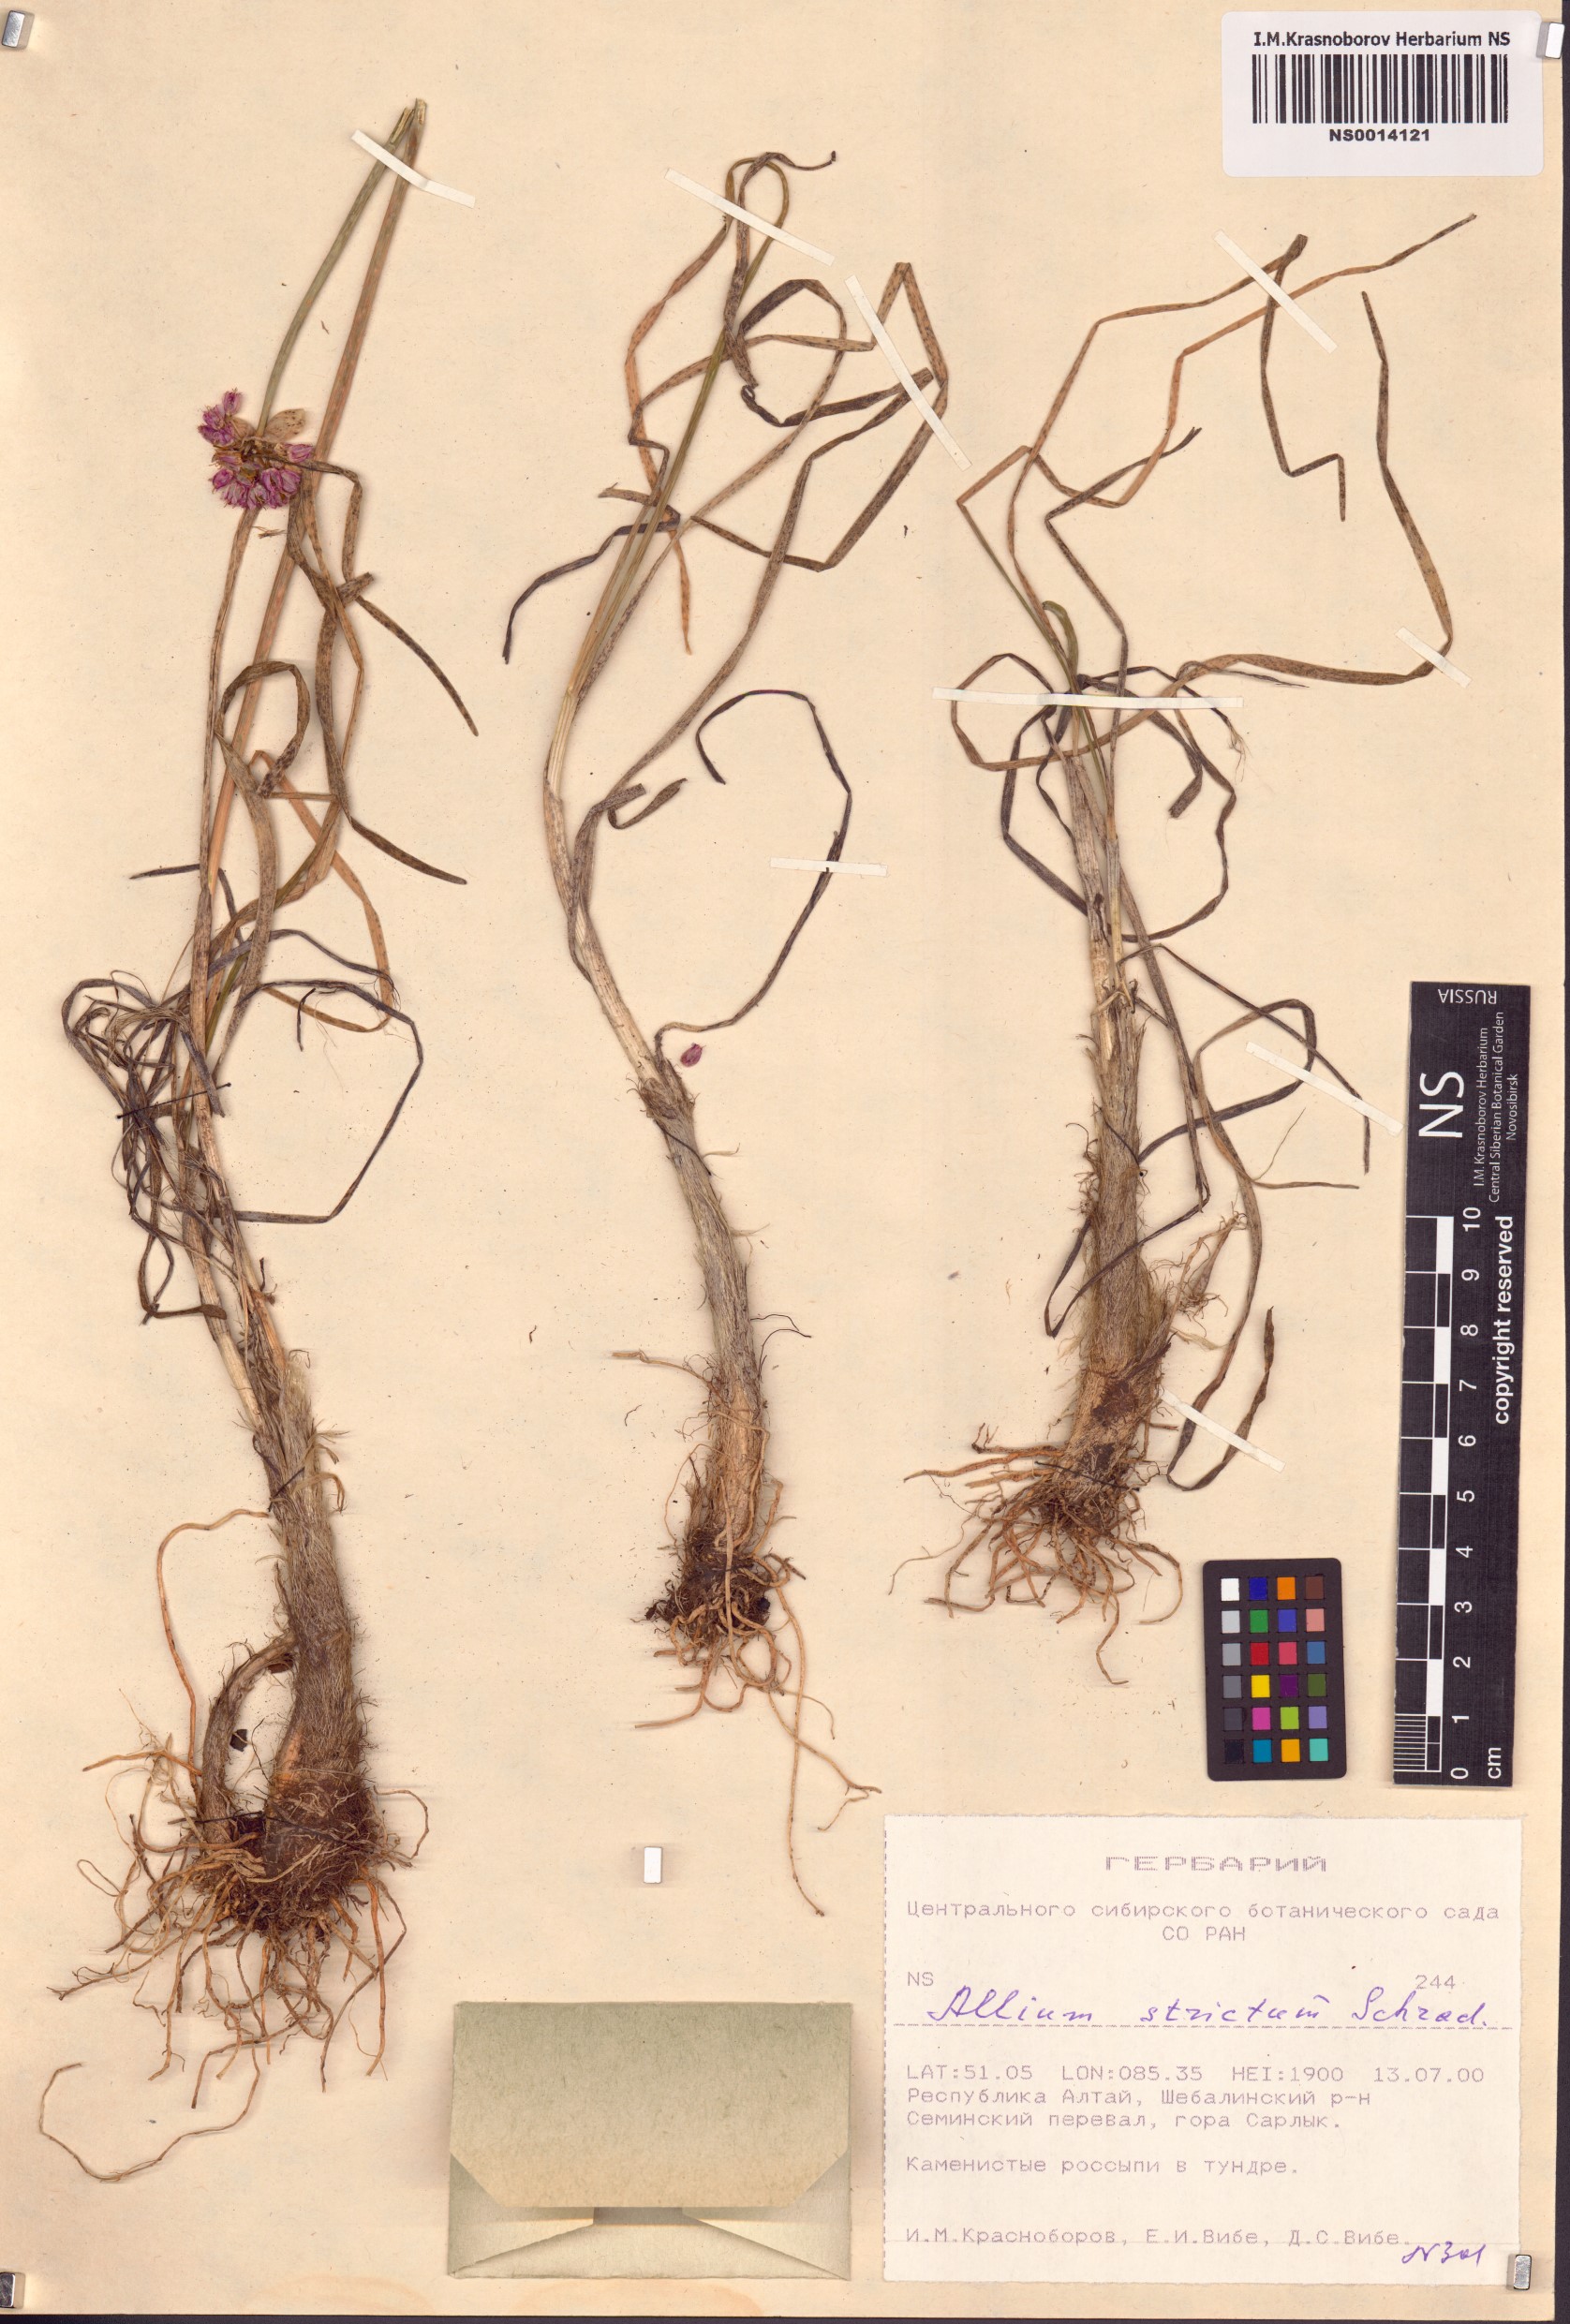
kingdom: Plantae
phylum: Tracheophyta
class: Liliopsida
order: Asparagales
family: Amaryllidaceae
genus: Allium
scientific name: Allium strictum
